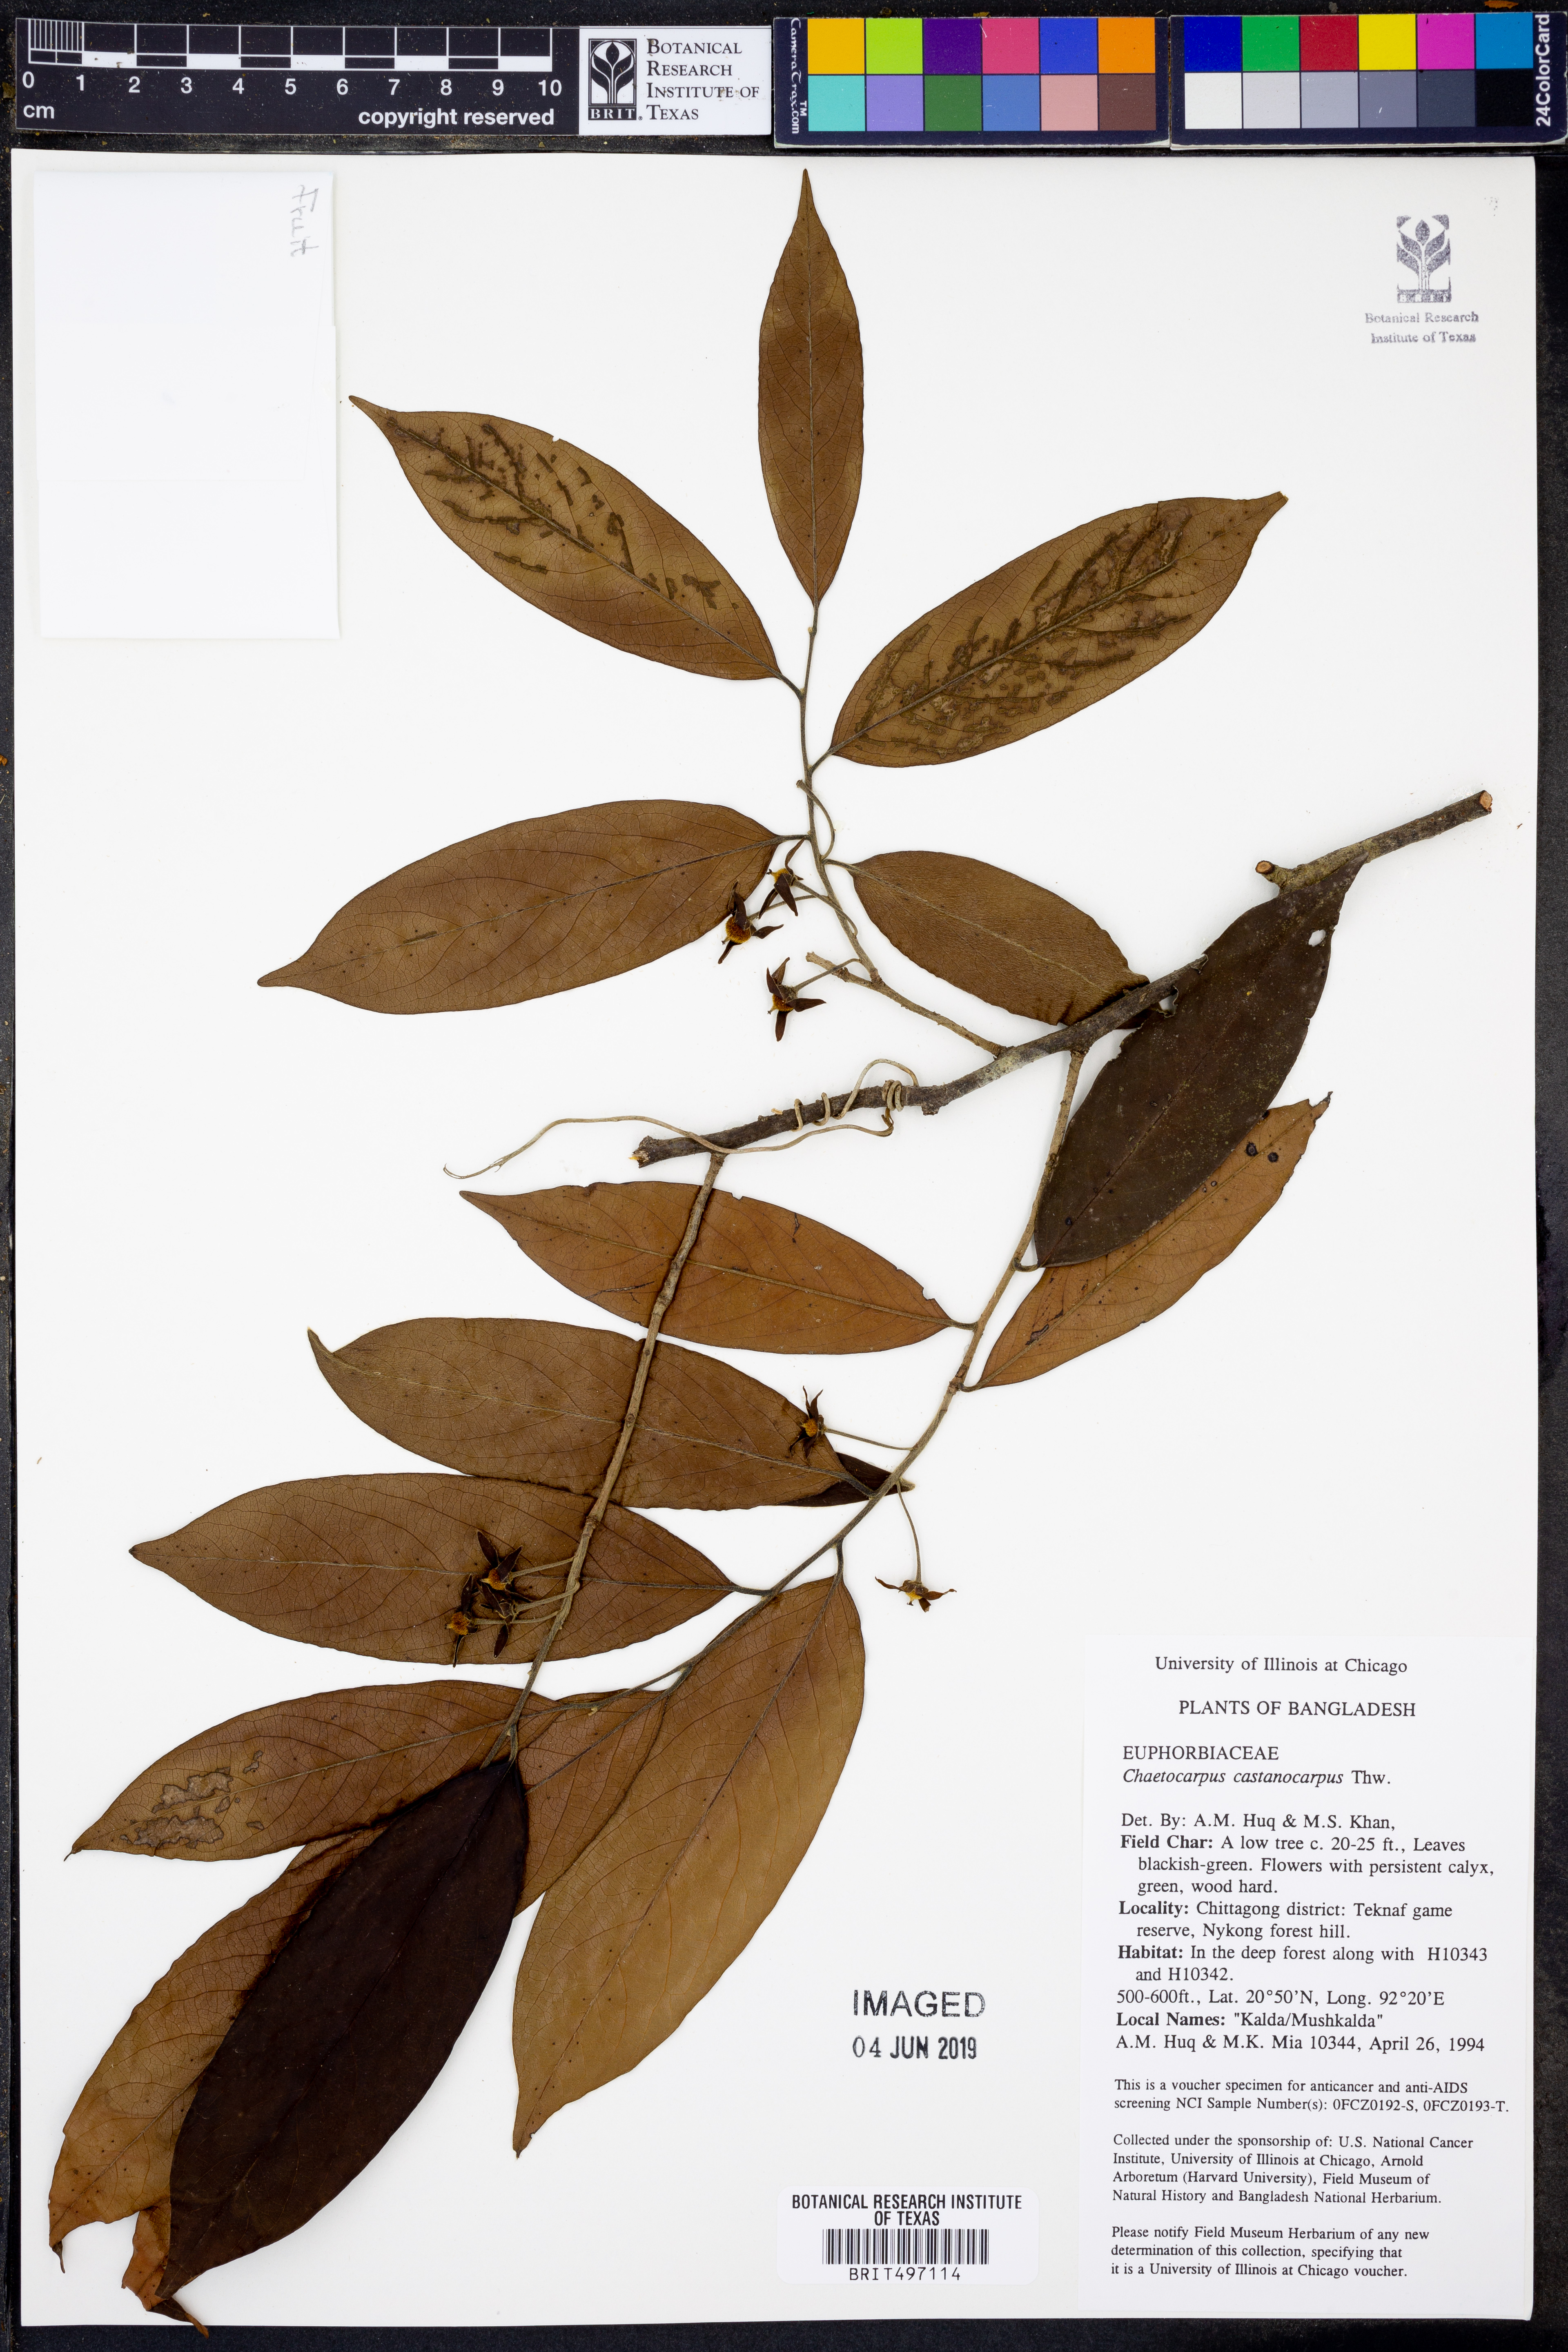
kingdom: Plantae
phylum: Tracheophyta
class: Magnoliopsida
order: Malpighiales
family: Peraceae
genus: Chaetocarpus
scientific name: Chaetocarpus castanocarpus
